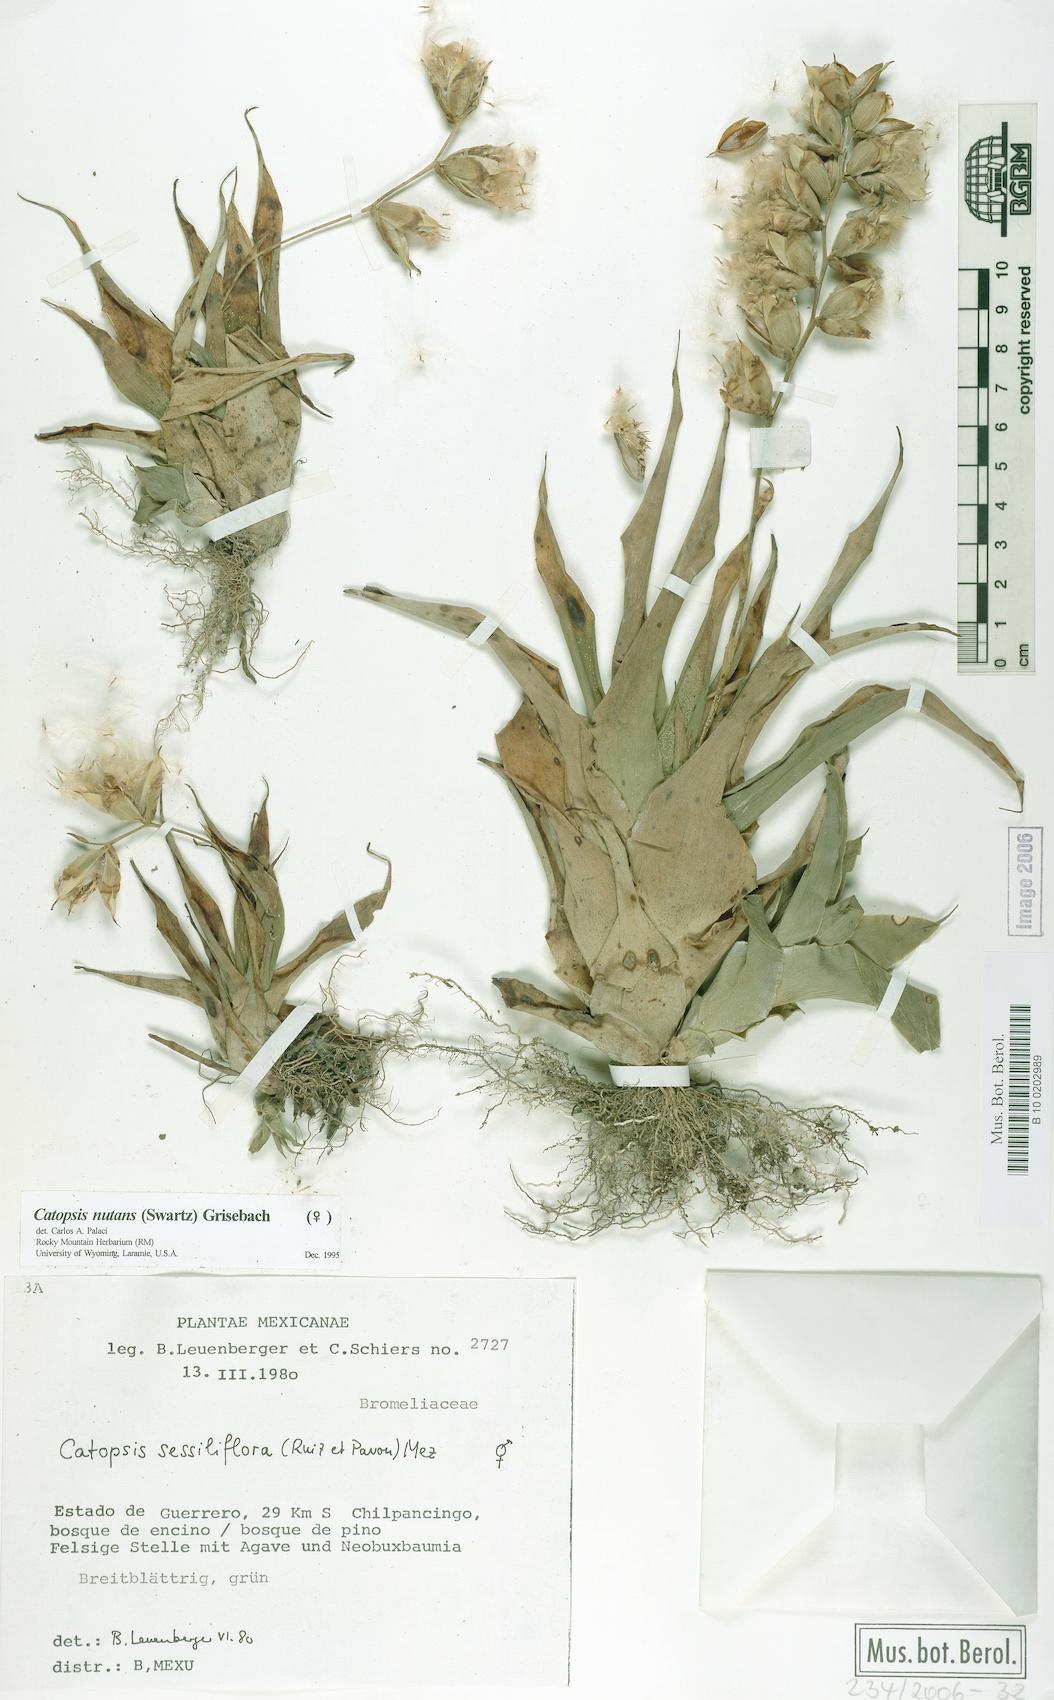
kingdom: Plantae
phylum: Tracheophyta
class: Liliopsida
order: Poales
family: Bromeliaceae
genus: Catopsis
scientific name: Catopsis nutans
